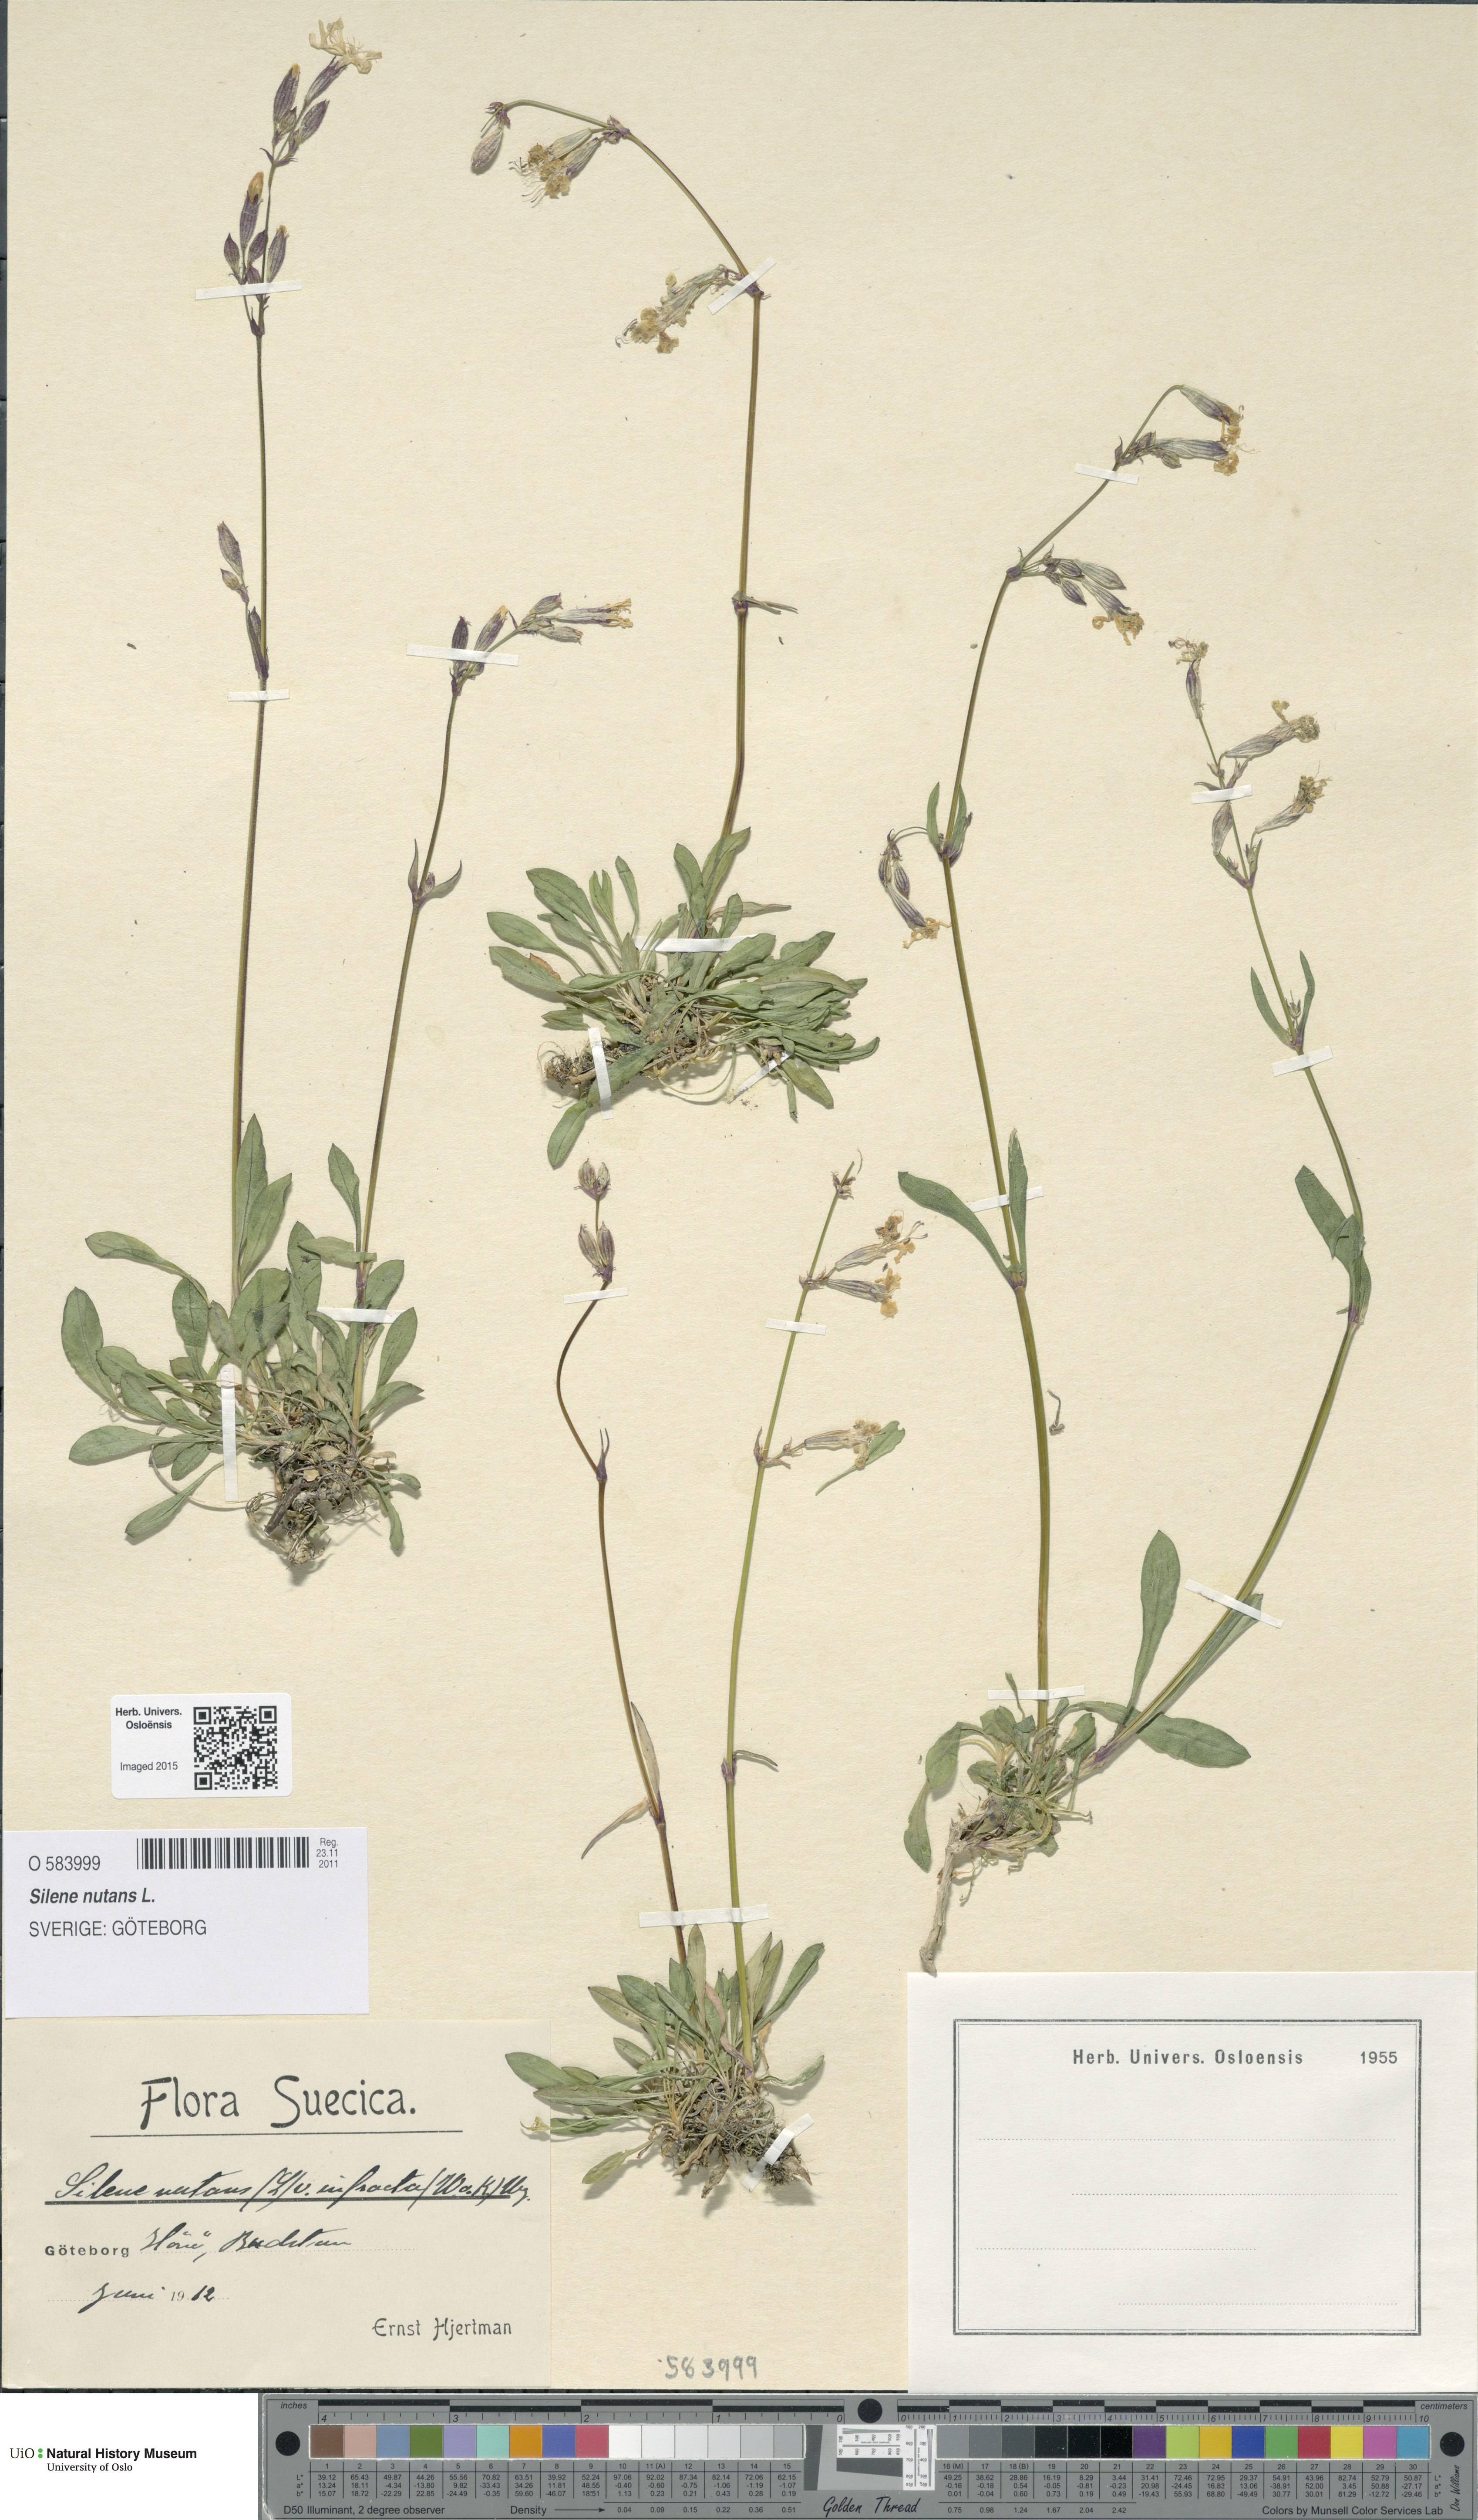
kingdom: Plantae
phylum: Tracheophyta
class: Magnoliopsida
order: Caryophyllales
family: Caryophyllaceae
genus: Silene
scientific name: Silene nutans
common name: Nottingham catchfly
